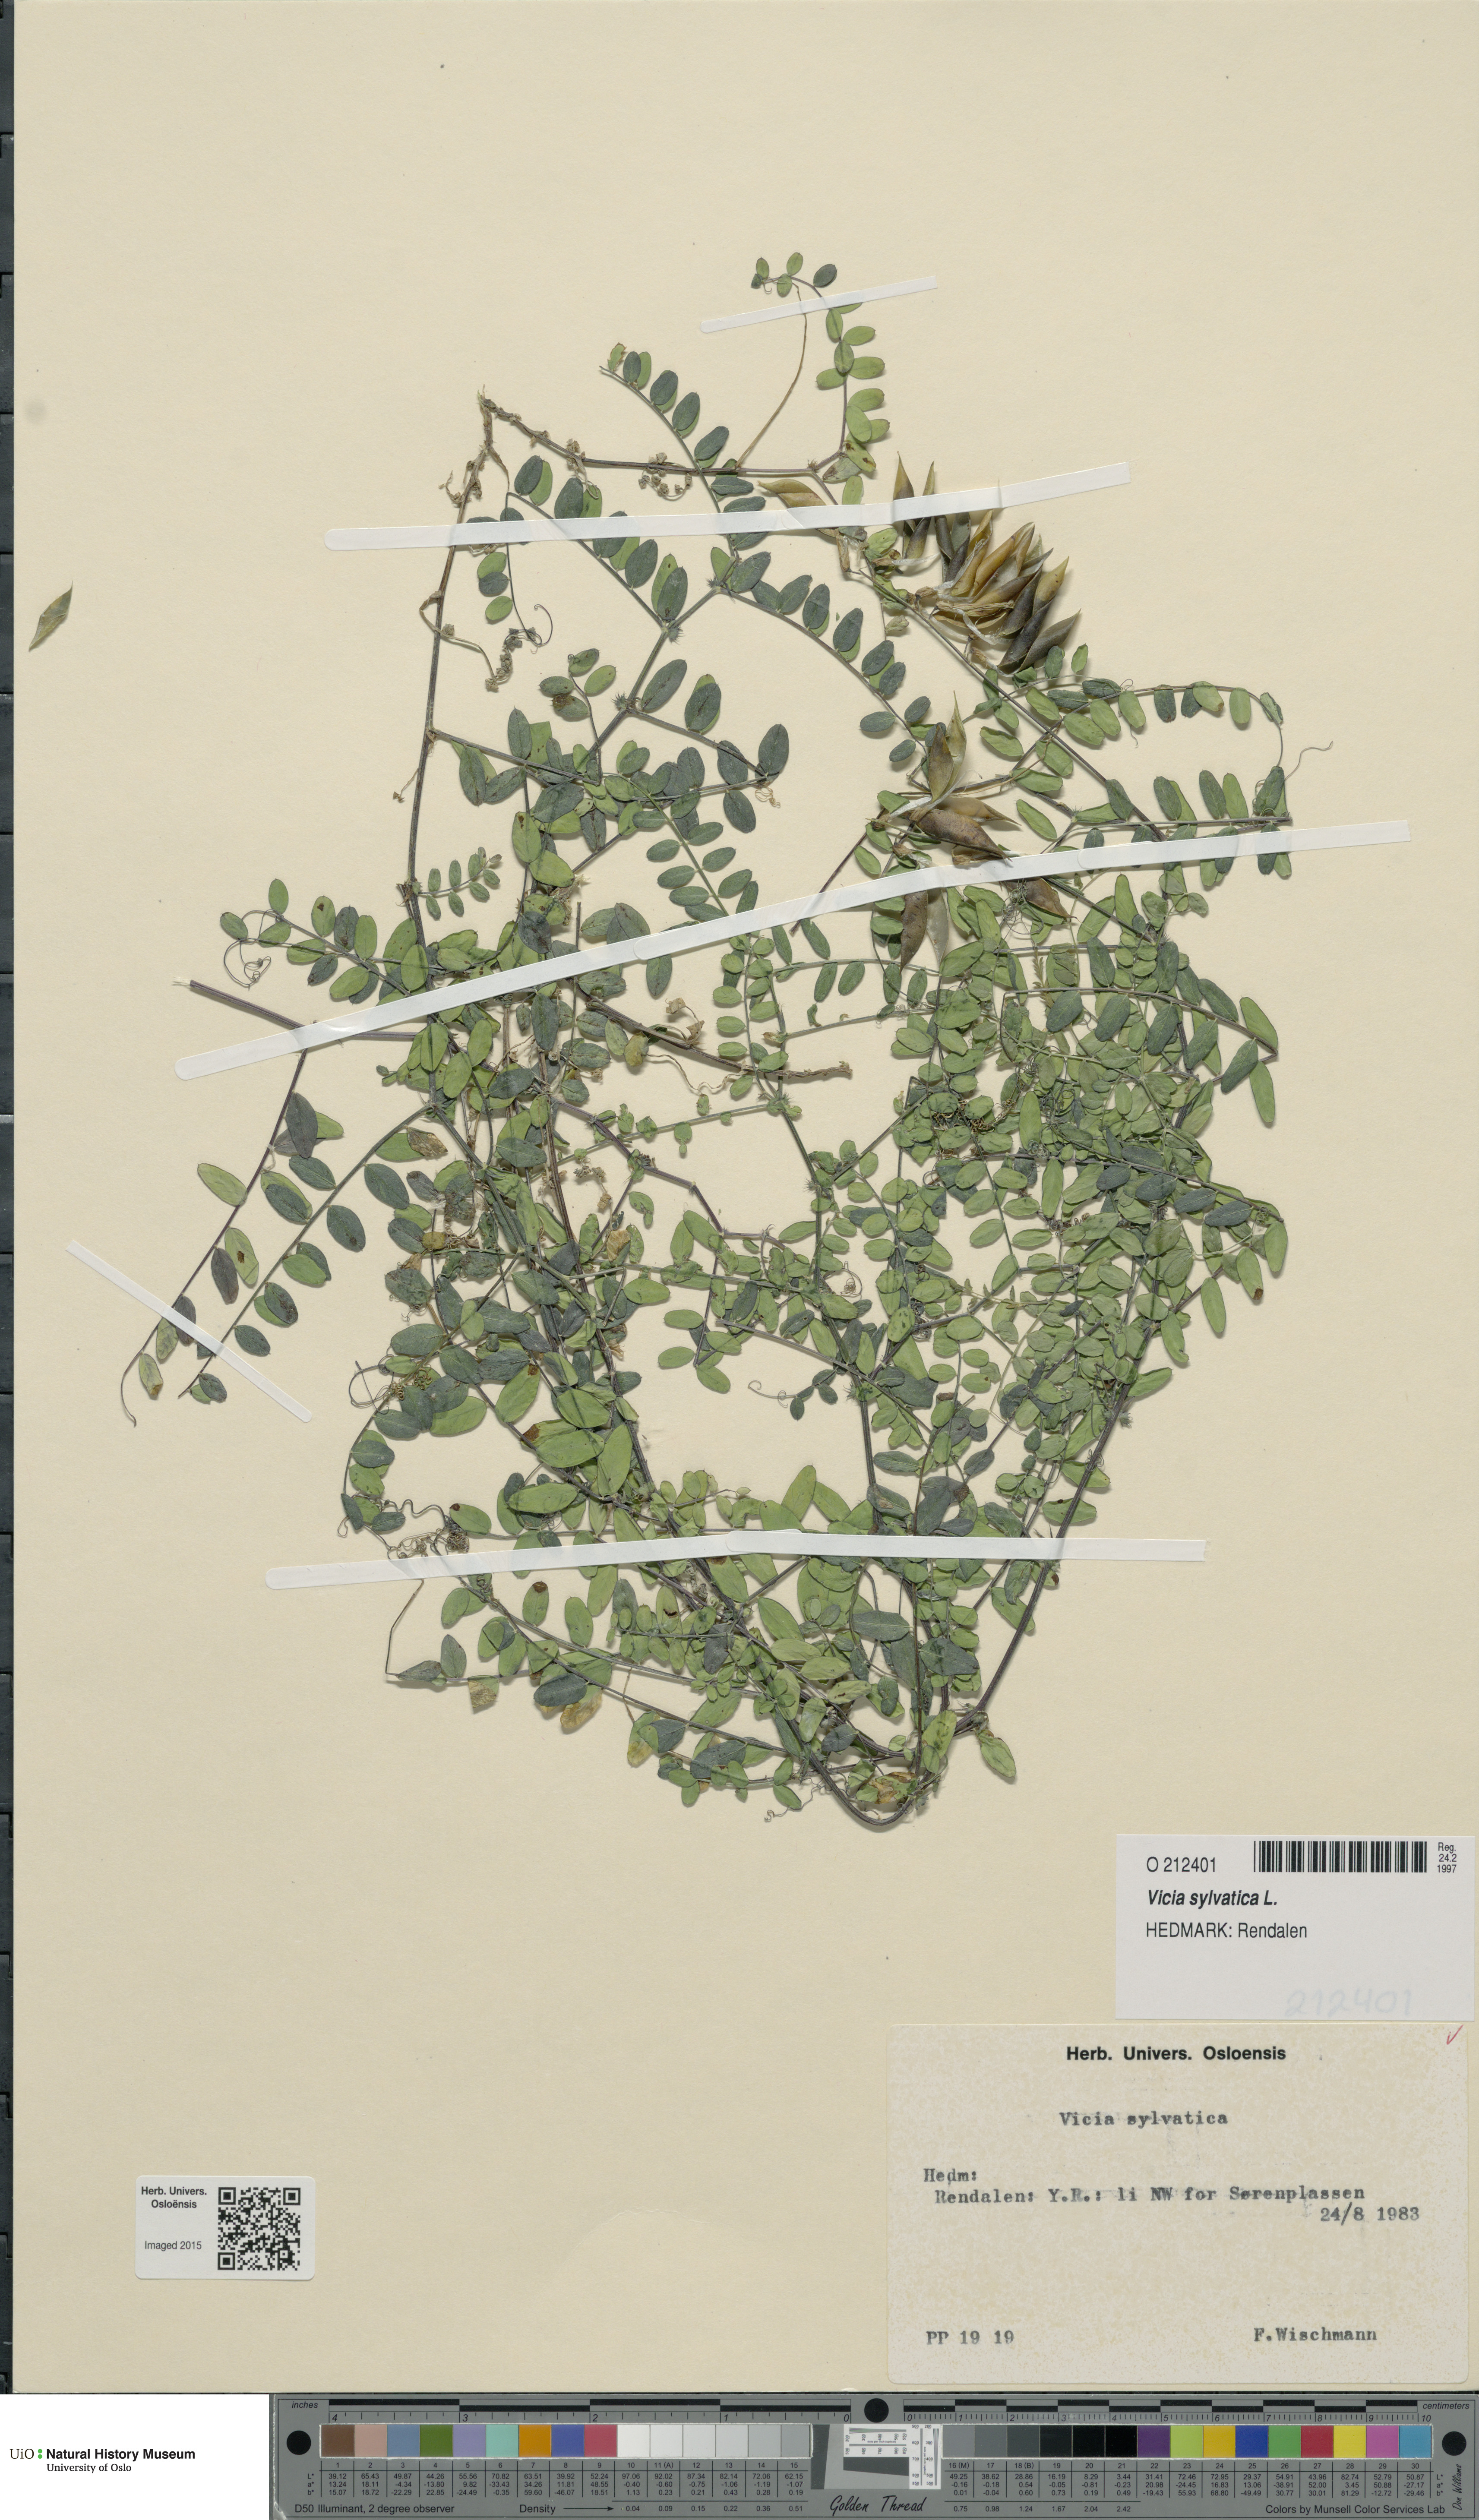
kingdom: Plantae
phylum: Tracheophyta
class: Magnoliopsida
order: Fabales
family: Fabaceae
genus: Vicia
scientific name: Vicia sylvatica
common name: Wood vetch
